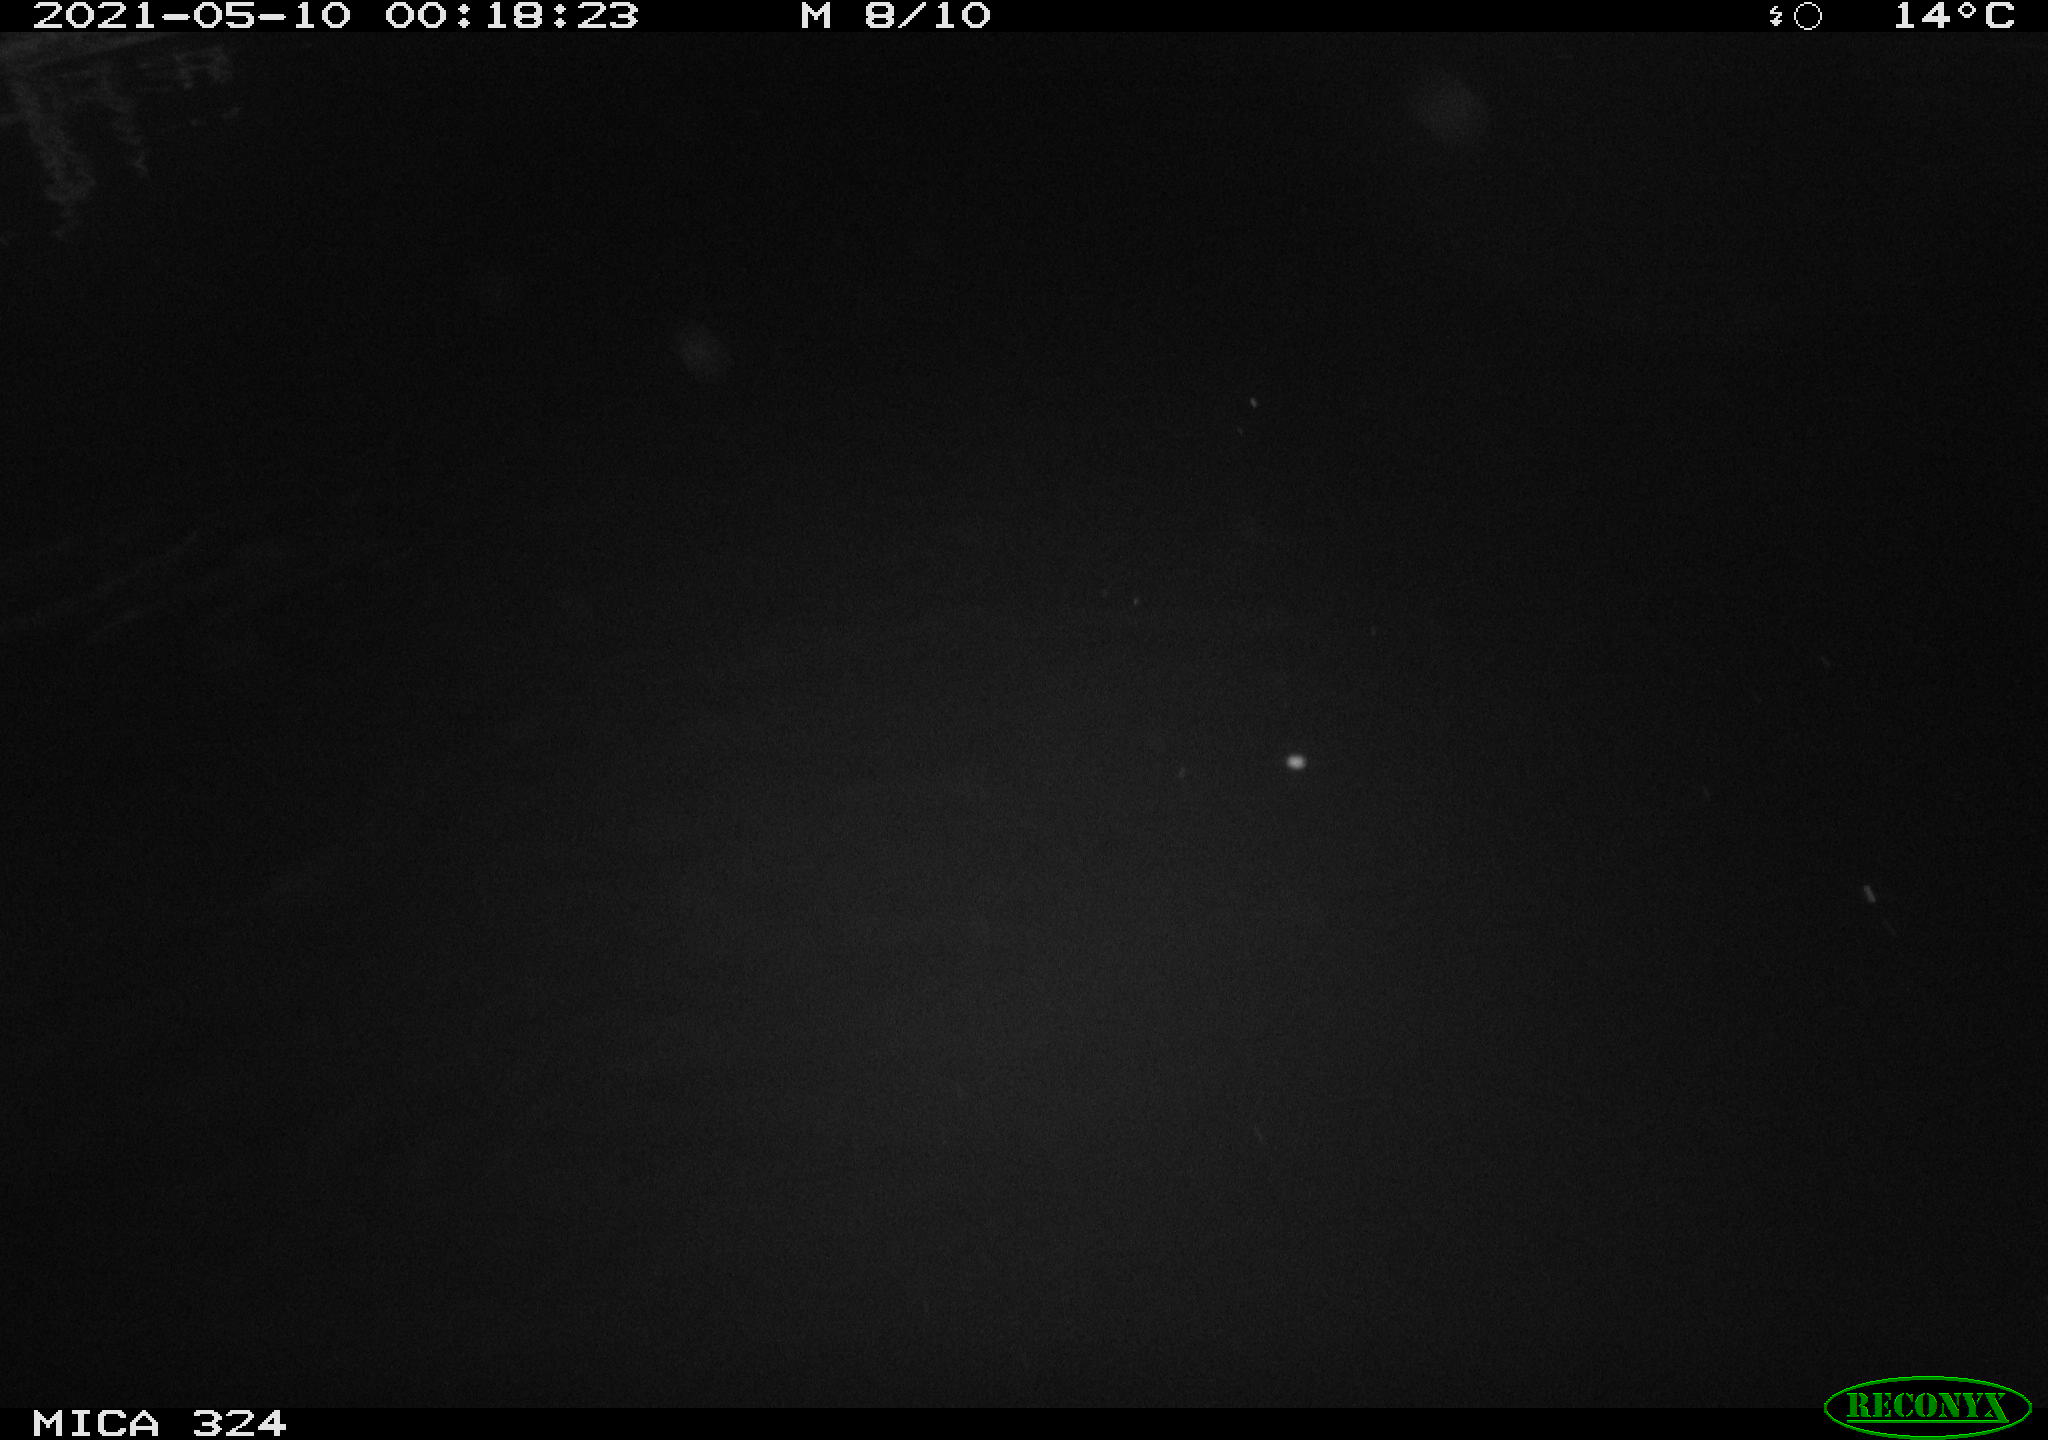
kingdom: Animalia
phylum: Chordata
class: Aves
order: Anseriformes
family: Anatidae
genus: Anas
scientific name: Anas platyrhynchos
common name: Mallard
